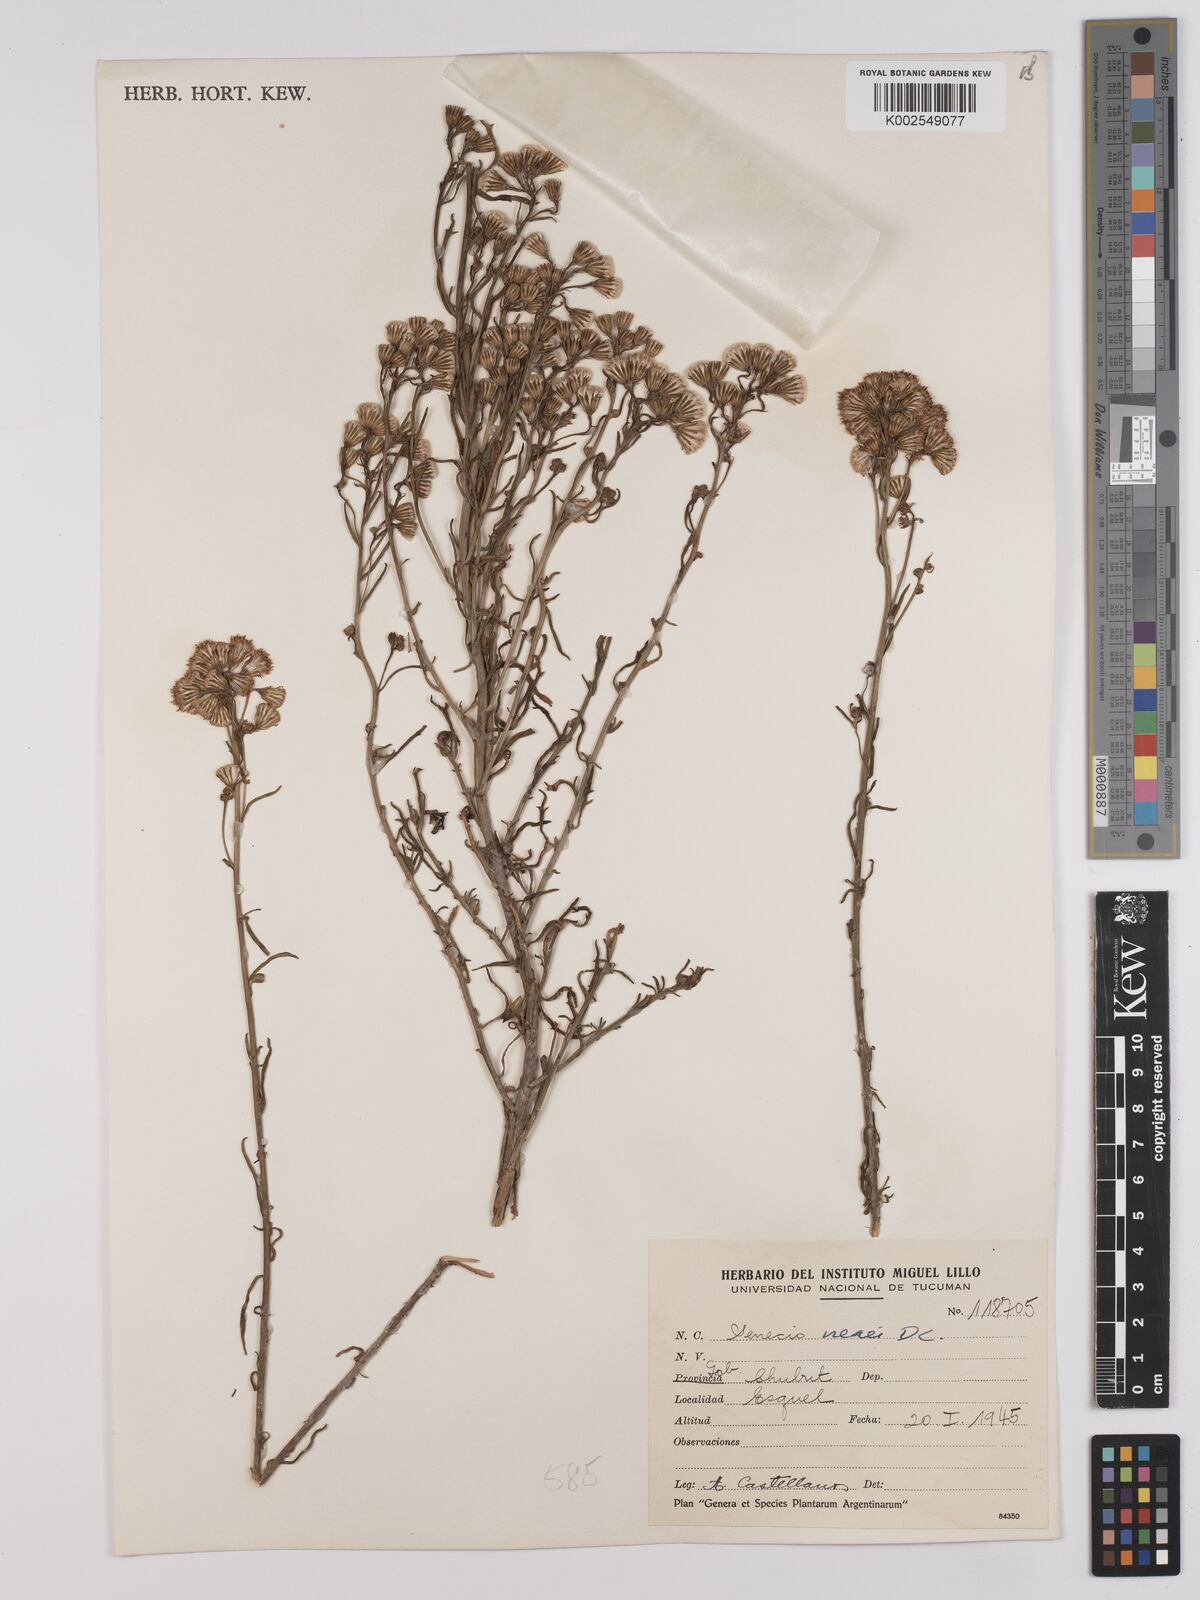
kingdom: Plantae
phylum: Tracheophyta
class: Magnoliopsida
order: Asterales
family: Asteraceae
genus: Senecio
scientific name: Senecio neaei
